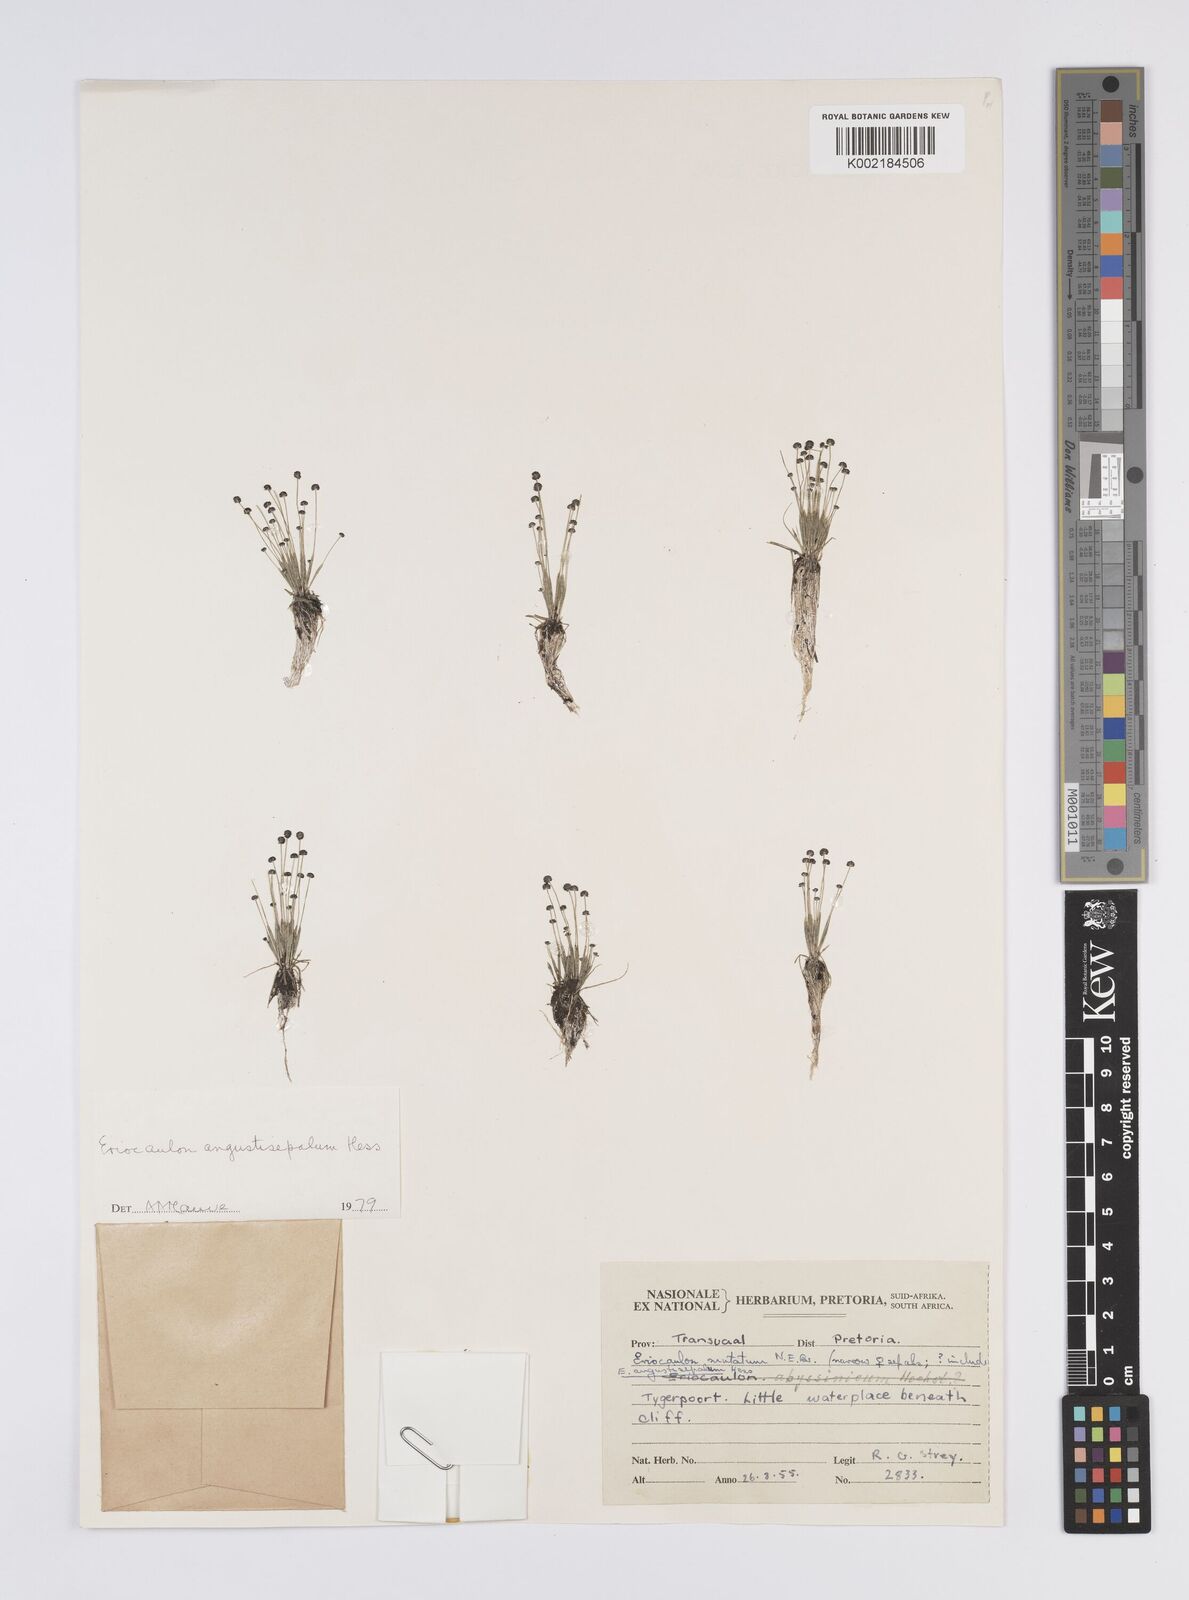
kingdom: Plantae
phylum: Tracheophyta
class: Liliopsida
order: Poales
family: Eriocaulaceae
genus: Eriocaulon
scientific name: Eriocaulon mutatum
